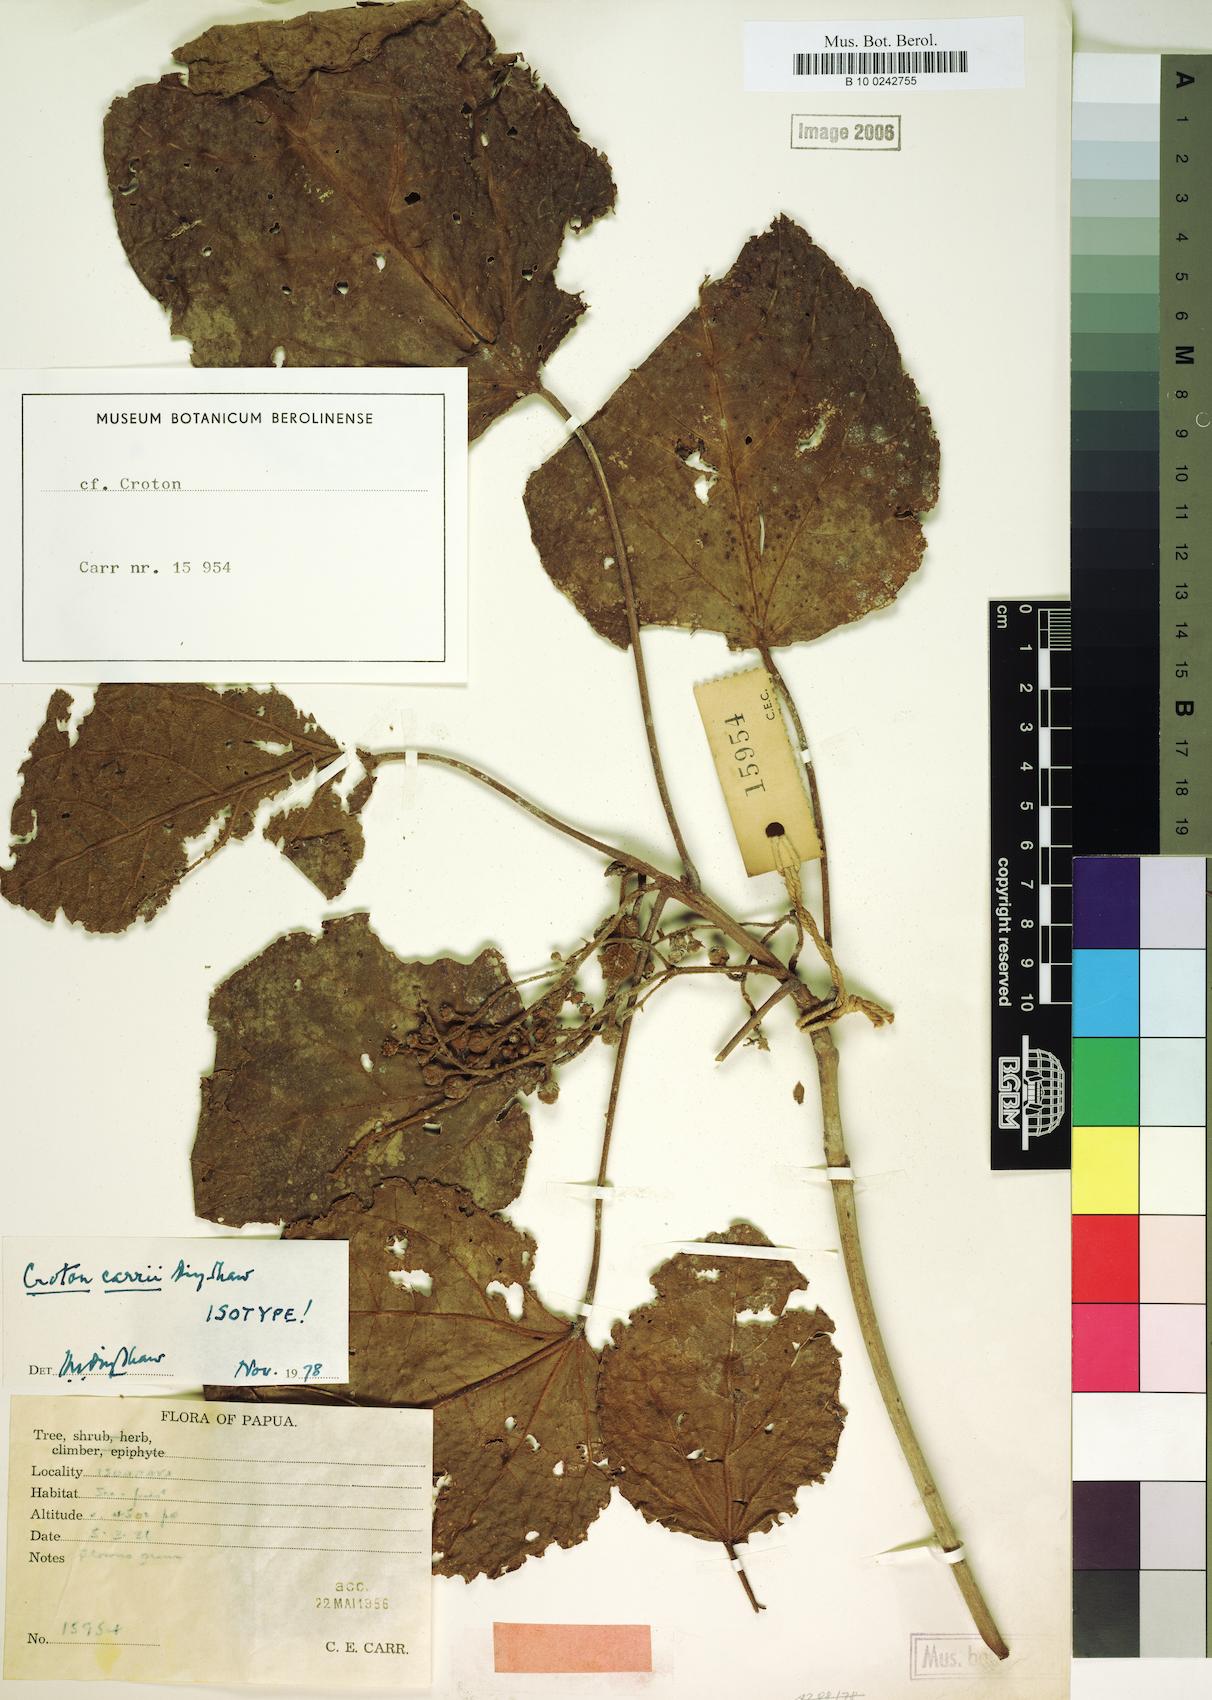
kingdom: Plantae
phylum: Tracheophyta
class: Magnoliopsida
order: Malpighiales
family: Euphorbiaceae
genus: Croton
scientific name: Croton carrii
